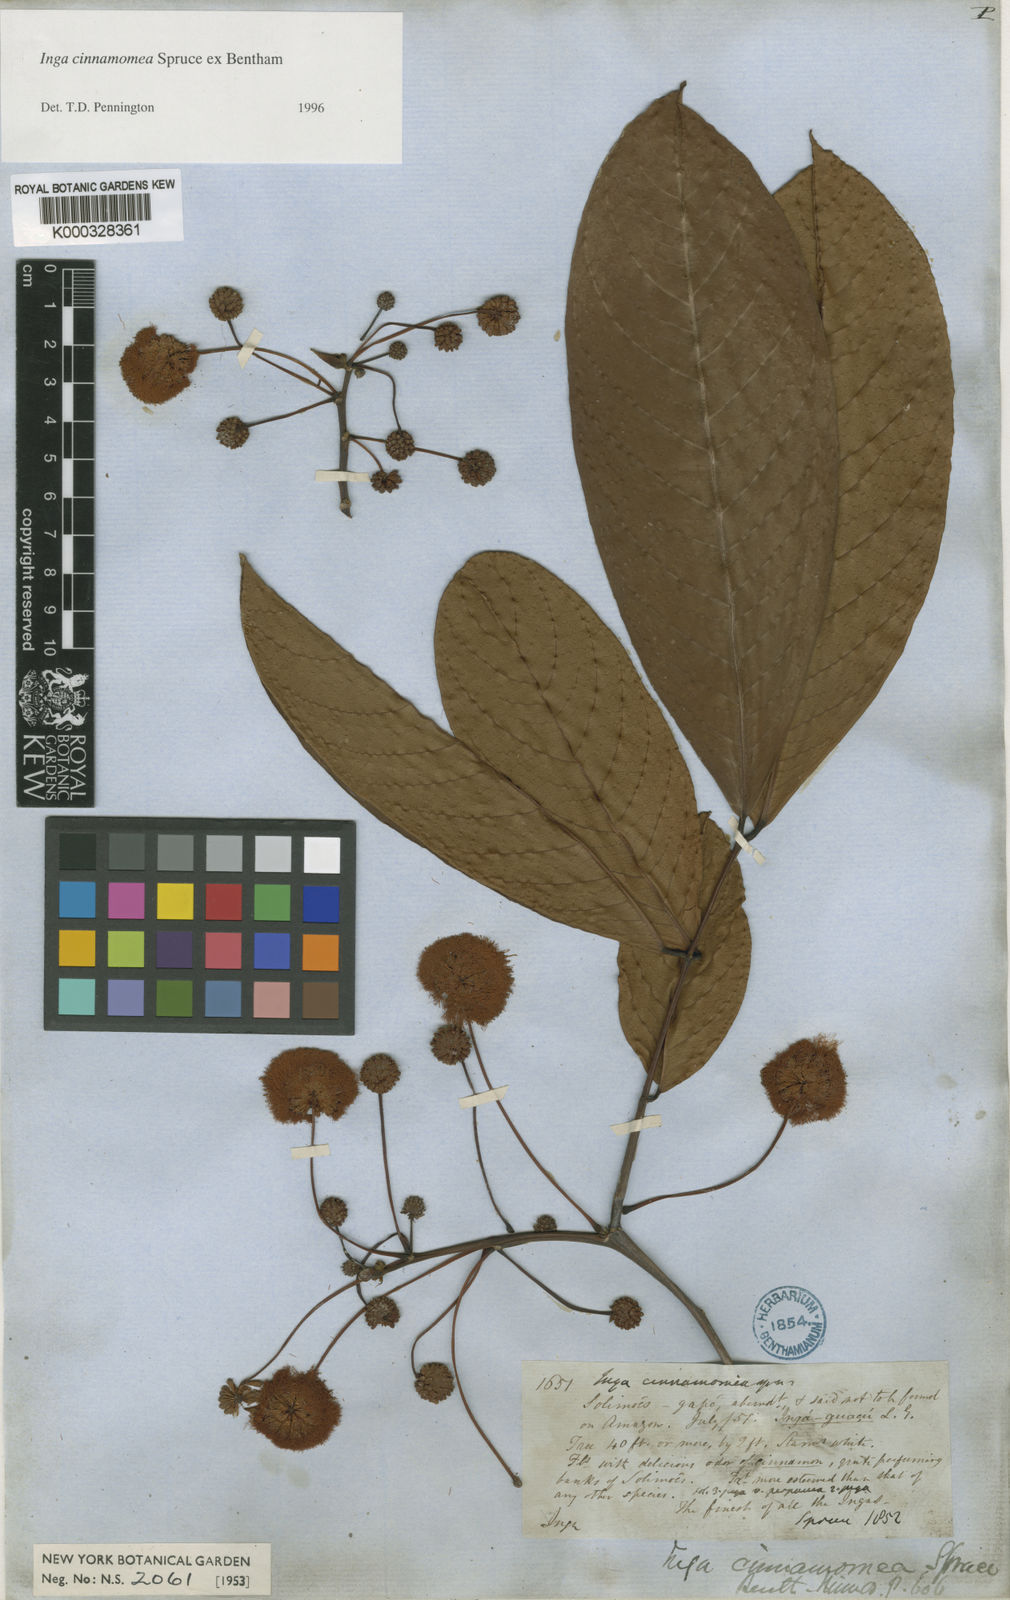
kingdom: Plantae
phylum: Tracheophyta
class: Magnoliopsida
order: Fabales
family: Fabaceae
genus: Inga
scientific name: Inga cinnamomea
